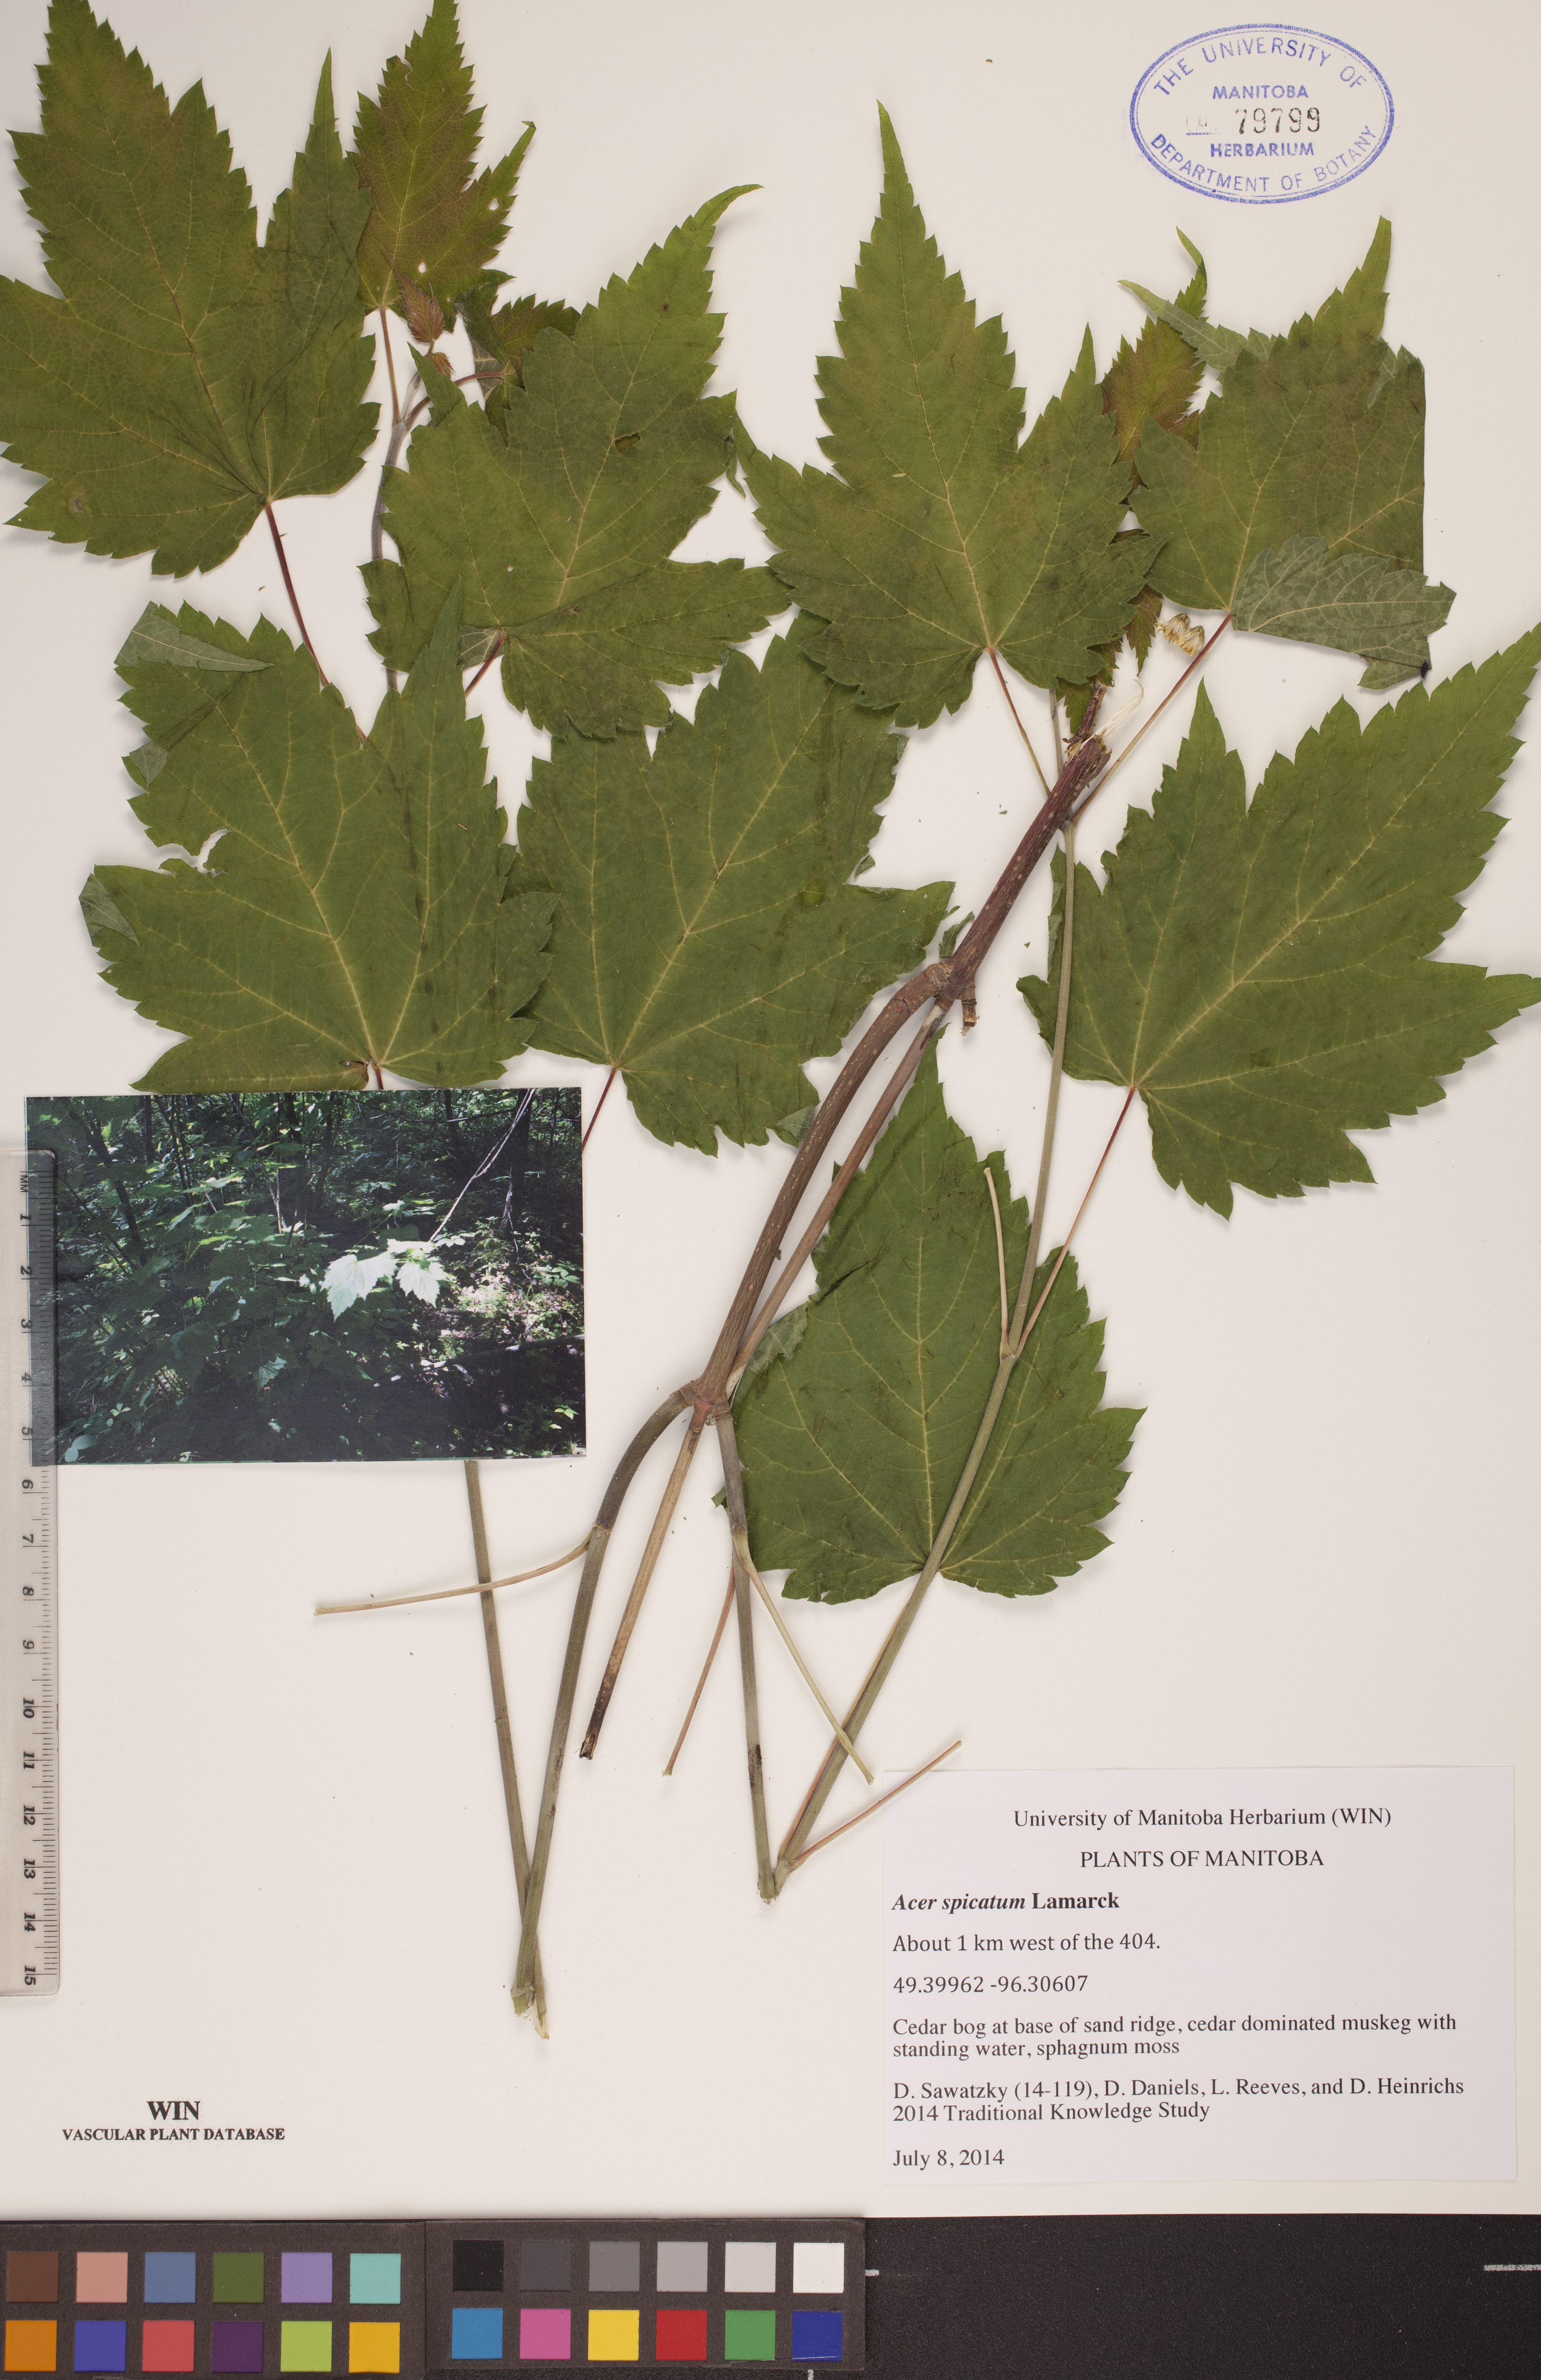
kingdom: Plantae
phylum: Tracheophyta
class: Magnoliopsida
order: Sapindales
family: Sapindaceae
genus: Acer
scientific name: Acer spicatum
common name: Mountain maple
